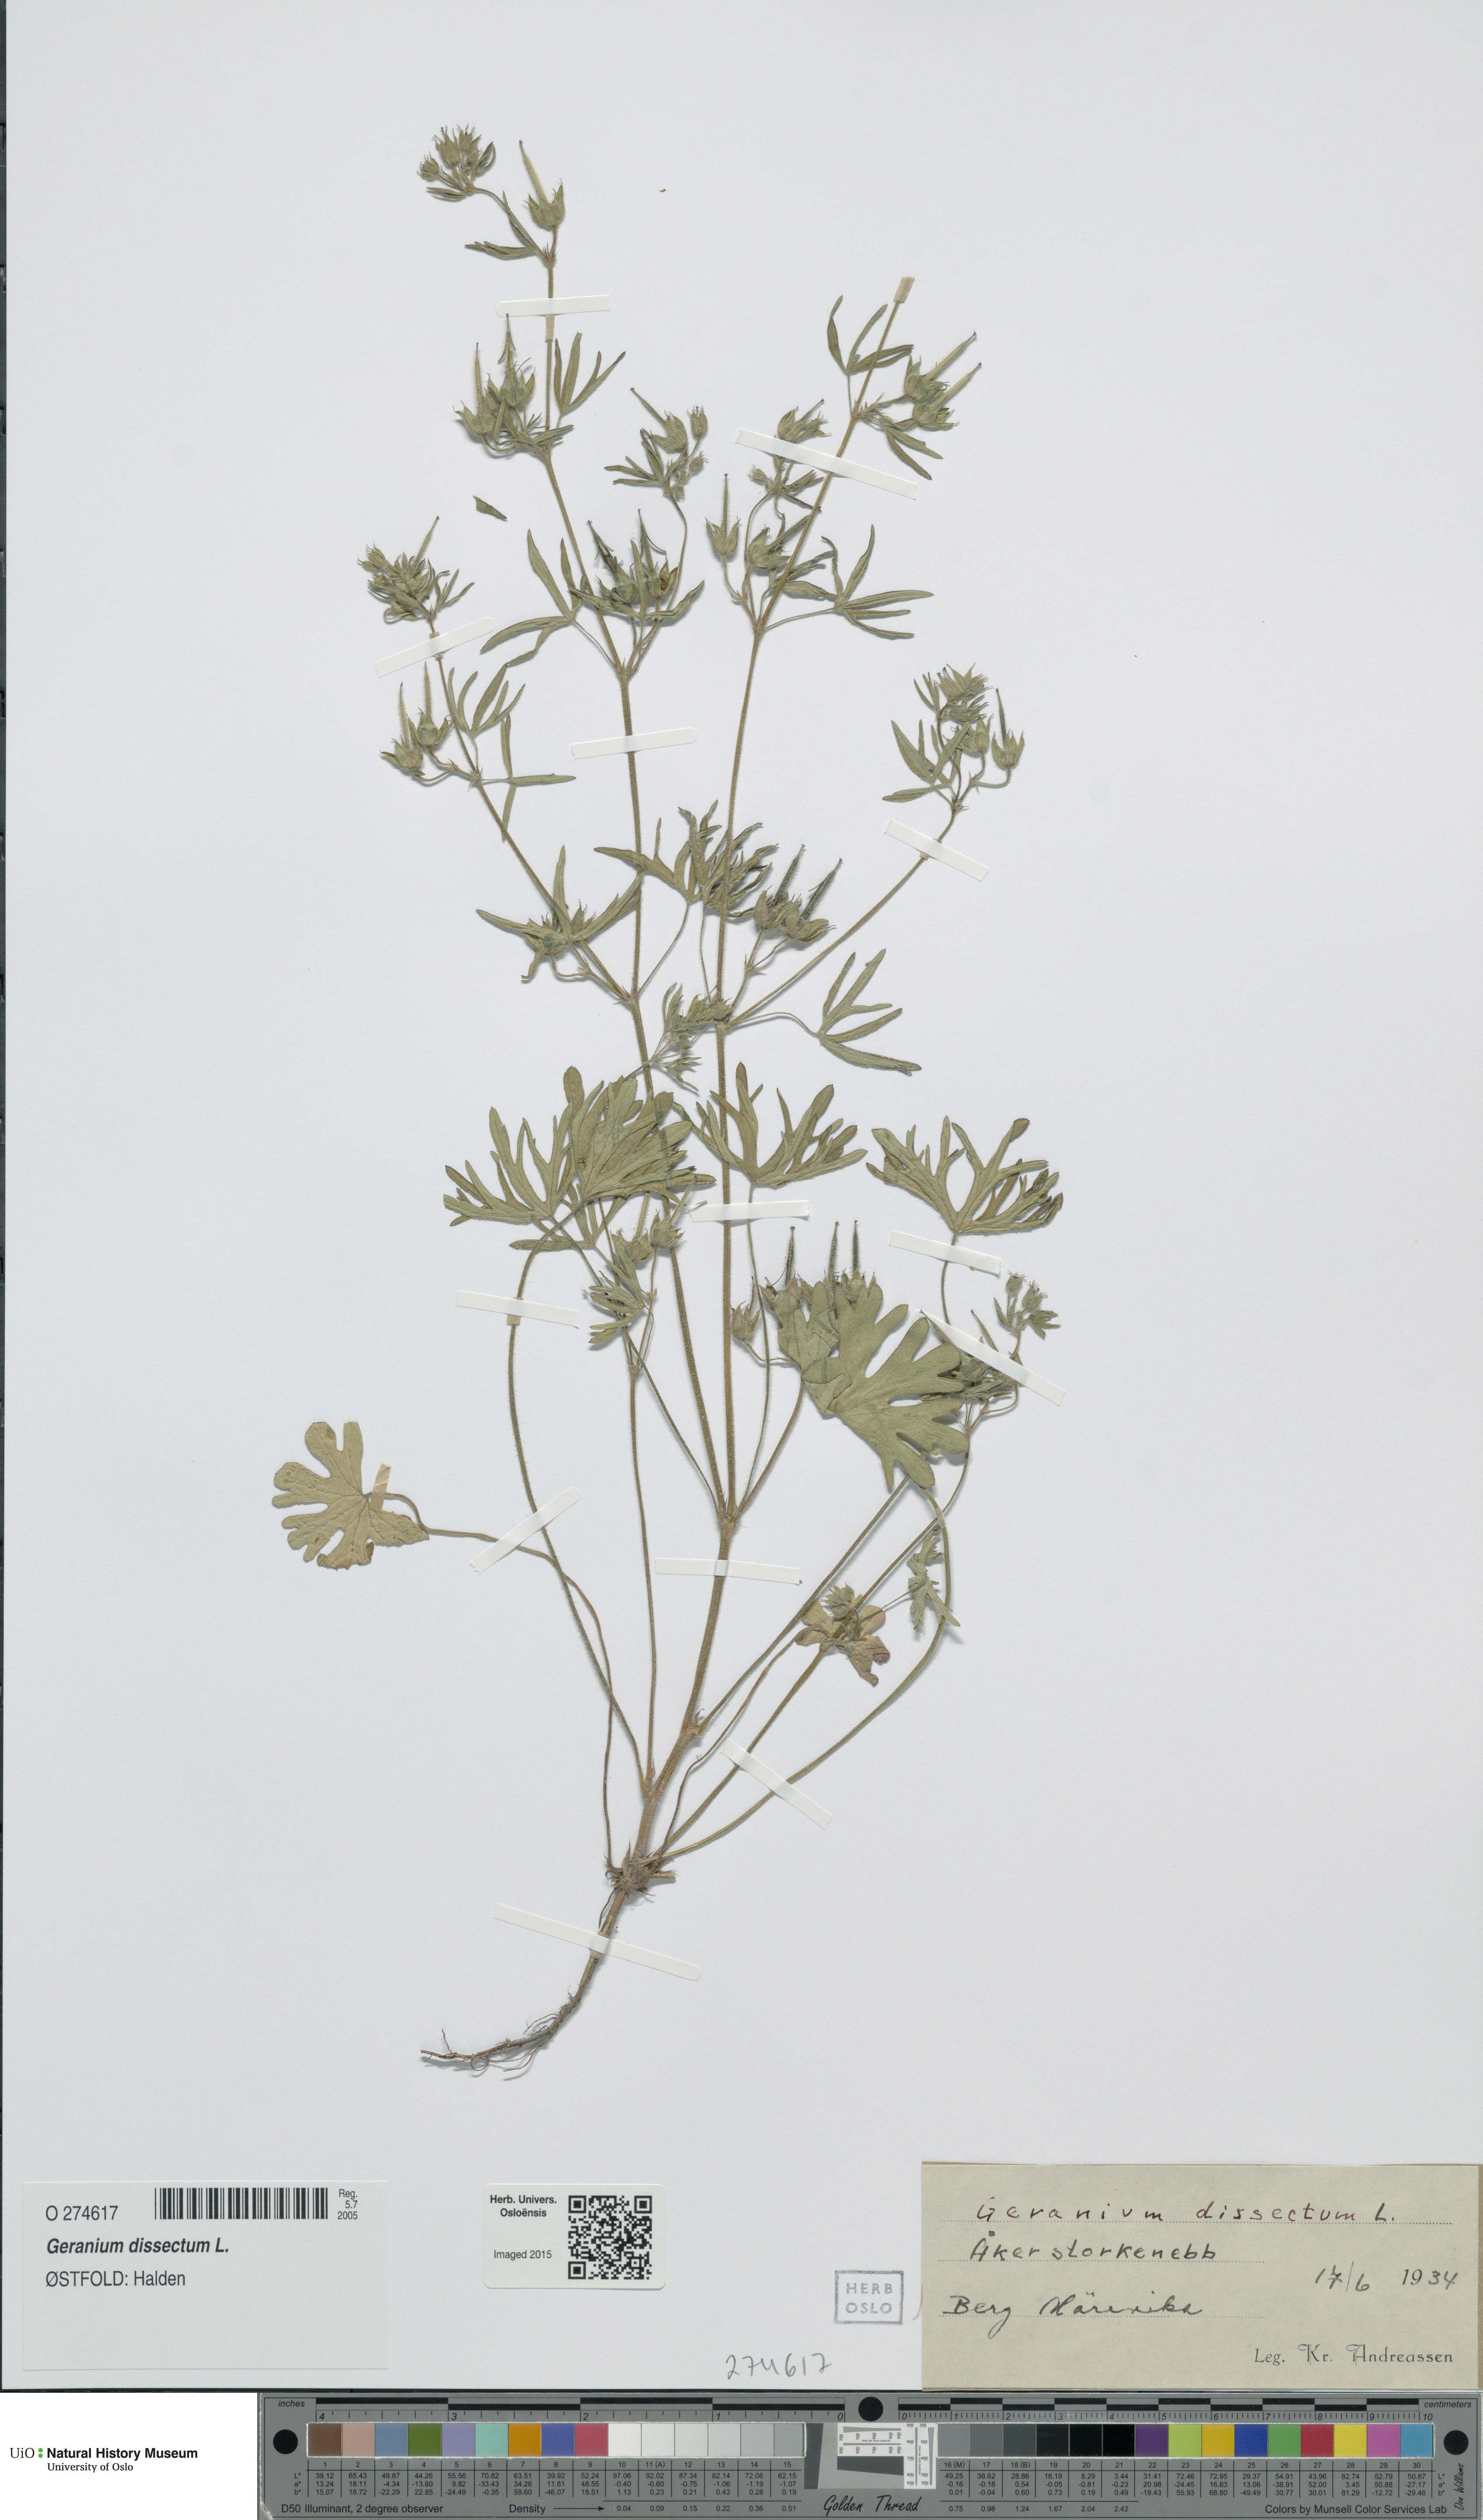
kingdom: Plantae
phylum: Tracheophyta
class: Magnoliopsida
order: Geraniales
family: Geraniaceae
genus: Geranium
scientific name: Geranium dissectum
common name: Cut-leaved crane's-bill
